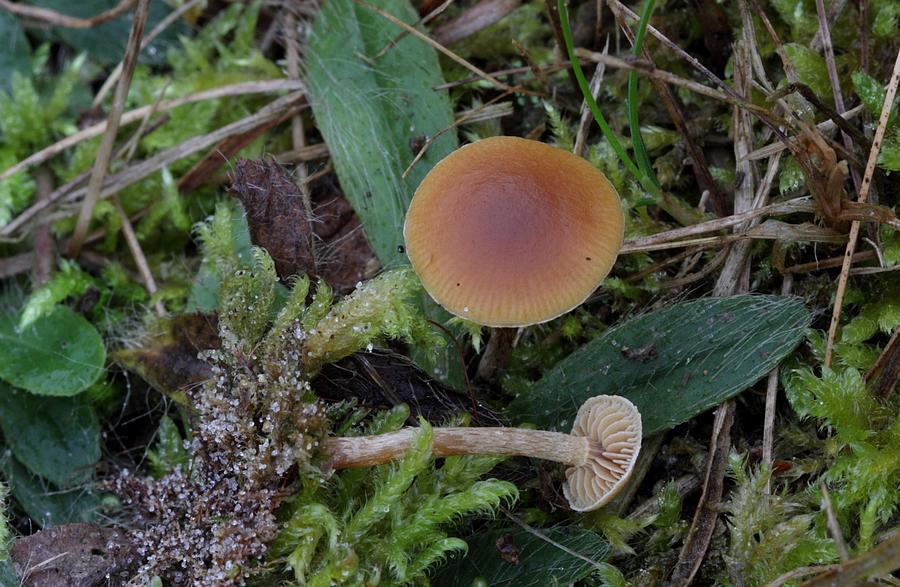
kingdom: Fungi
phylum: Basidiomycota
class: Agaricomycetes
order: Agaricales
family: Hymenogastraceae
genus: Galerina
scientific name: Galerina esteve-raventosii
